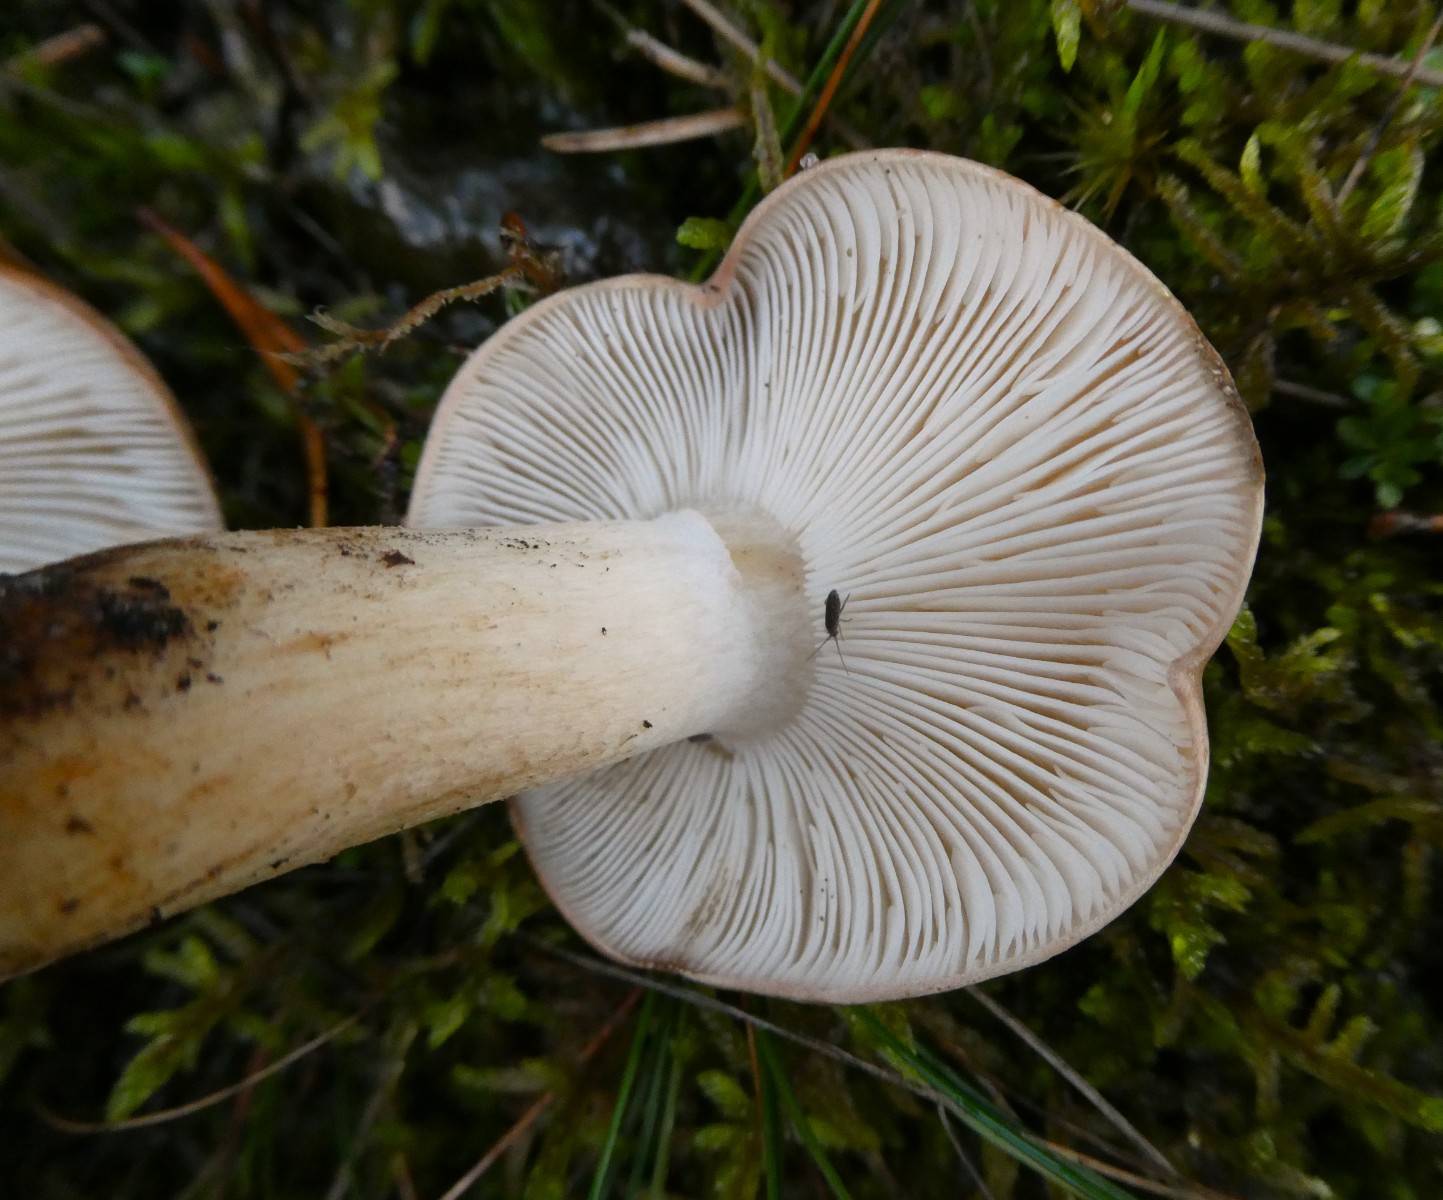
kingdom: Fungi
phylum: Basidiomycota
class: Agaricomycetes
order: Agaricales
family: Tricholomataceae
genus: Tricholoma
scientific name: Tricholoma populinum
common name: poppel-ridderhat
